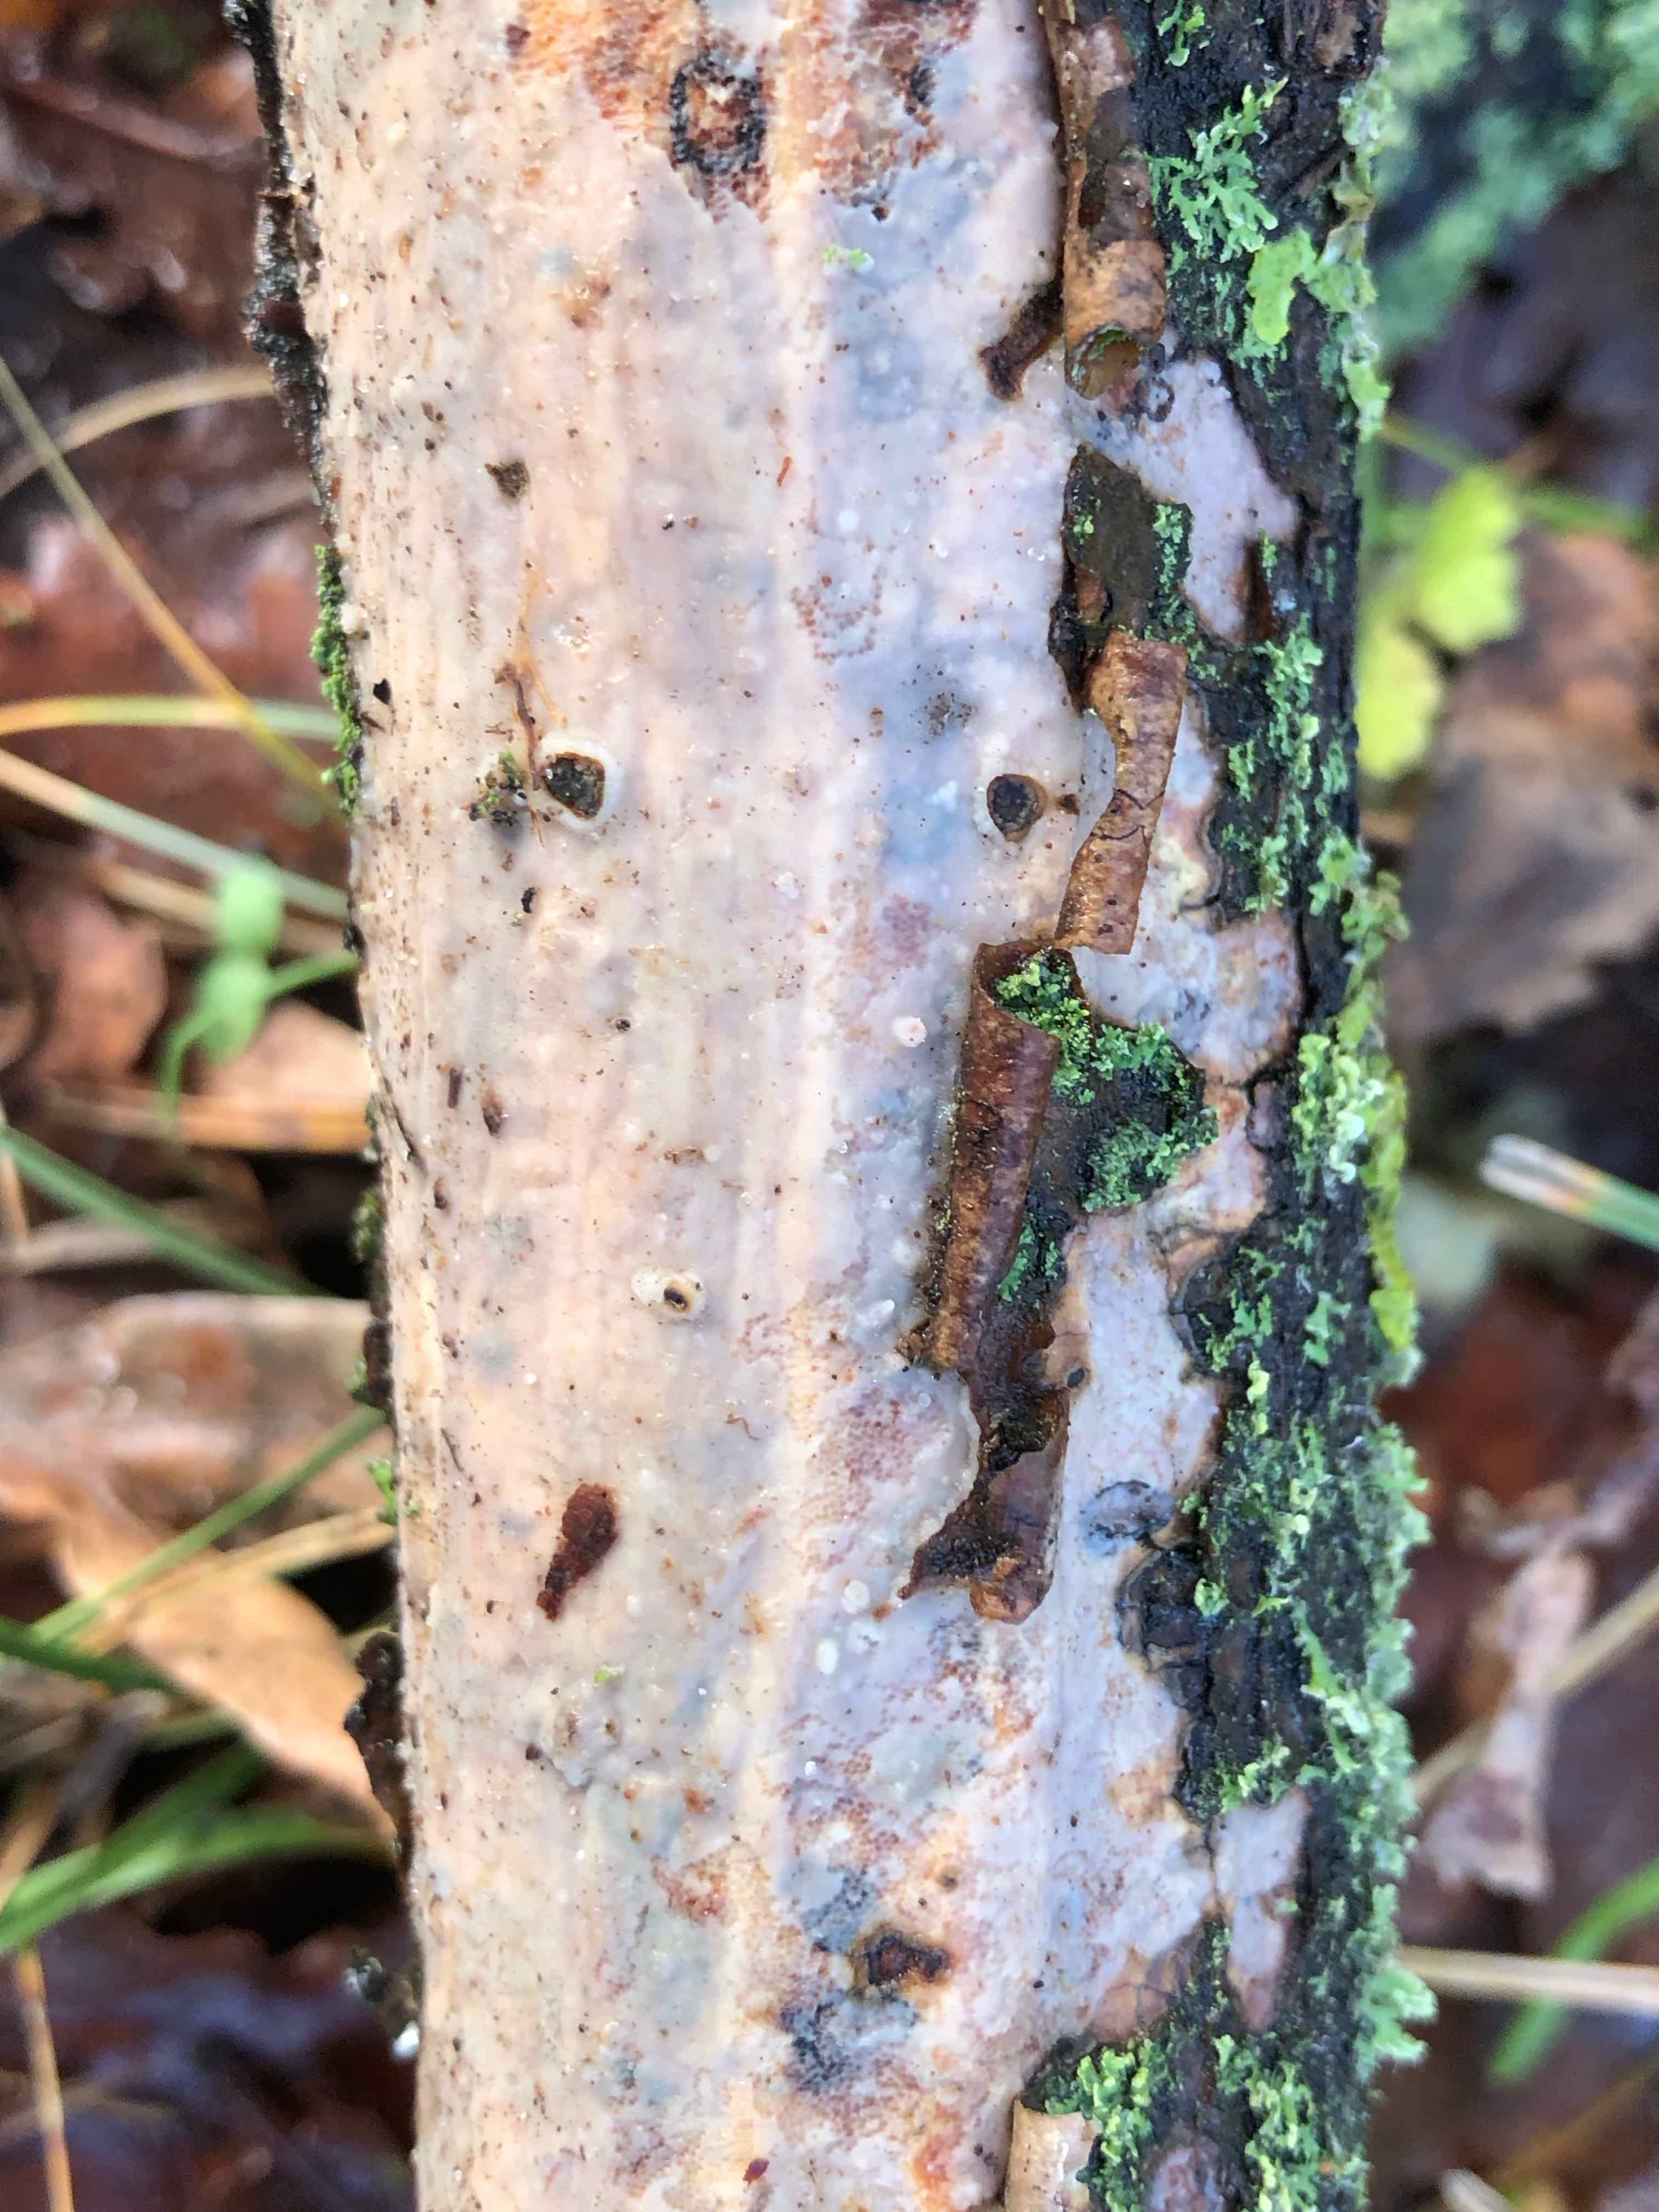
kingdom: Fungi
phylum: Basidiomycota
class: Agaricomycetes
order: Corticiales
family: Vuilleminiaceae
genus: Vuilleminia
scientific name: Vuilleminia comedens
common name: almindelig barksprænger
